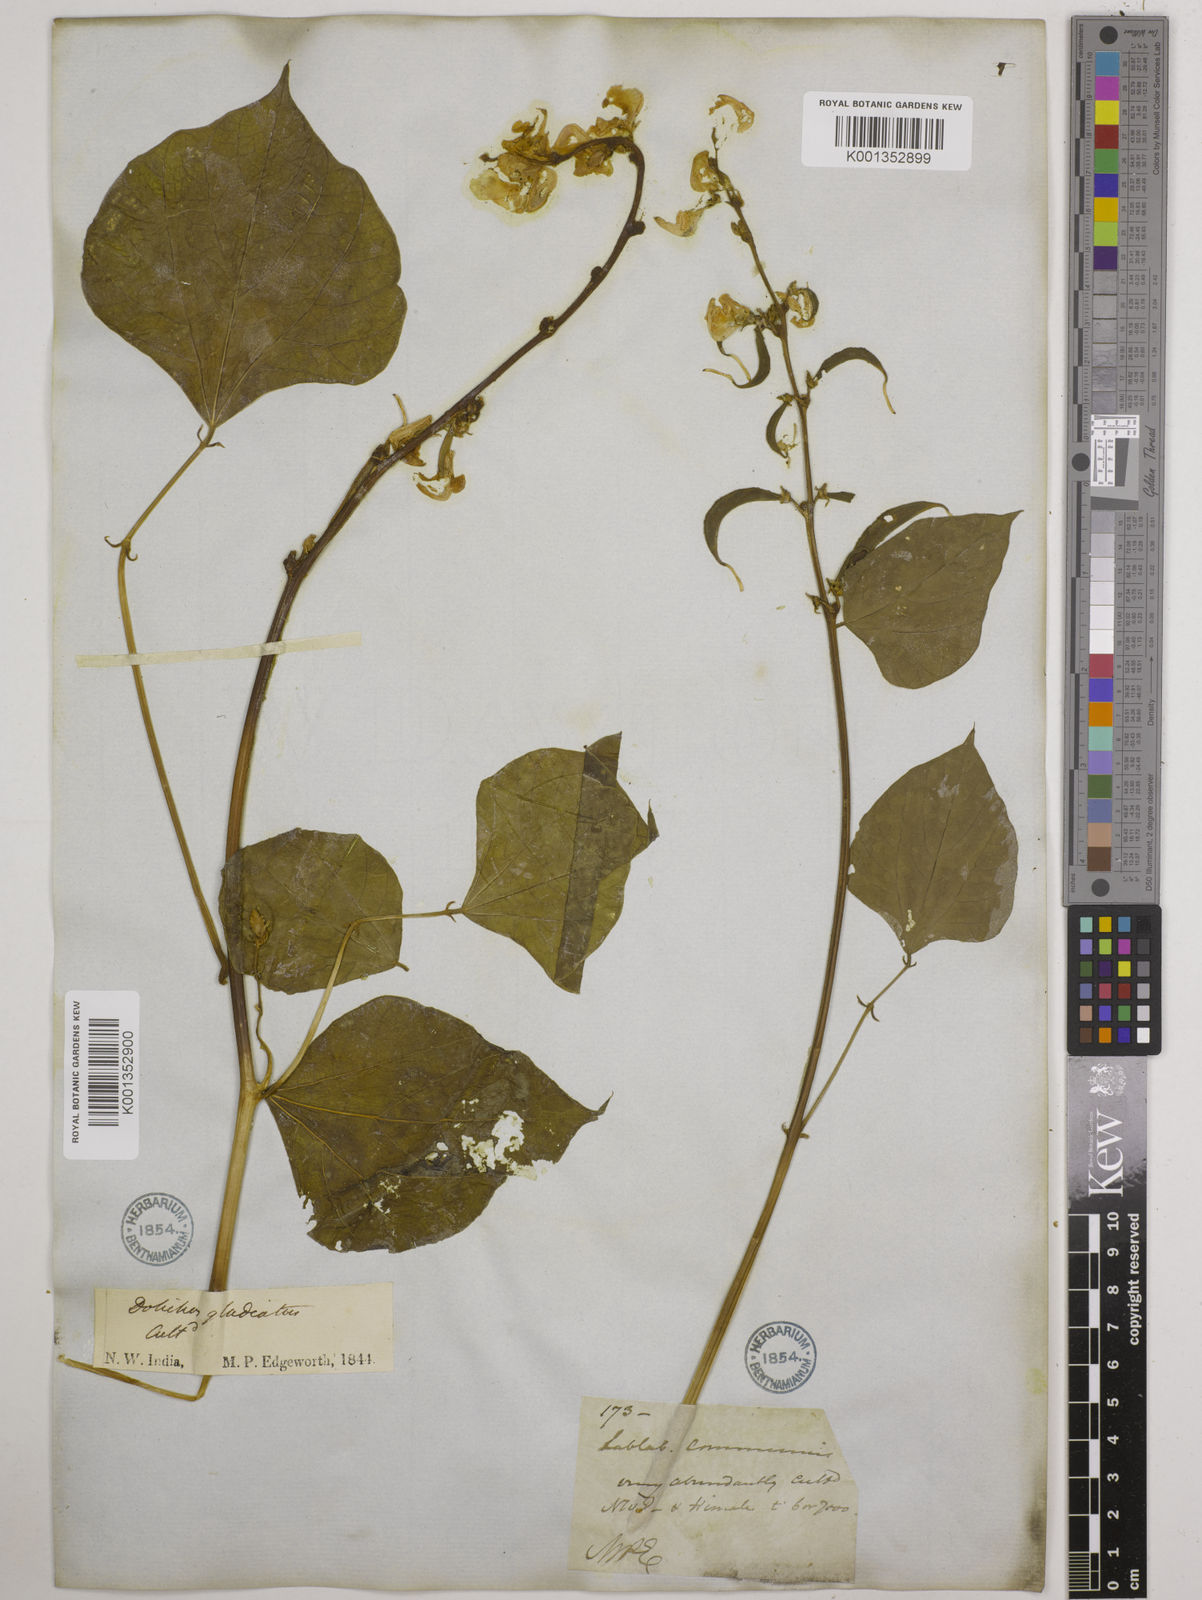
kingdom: Plantae
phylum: Tracheophyta
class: Magnoliopsida
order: Fabales
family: Fabaceae
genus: Lablab
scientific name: Lablab purpureus
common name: Lablab-bean
